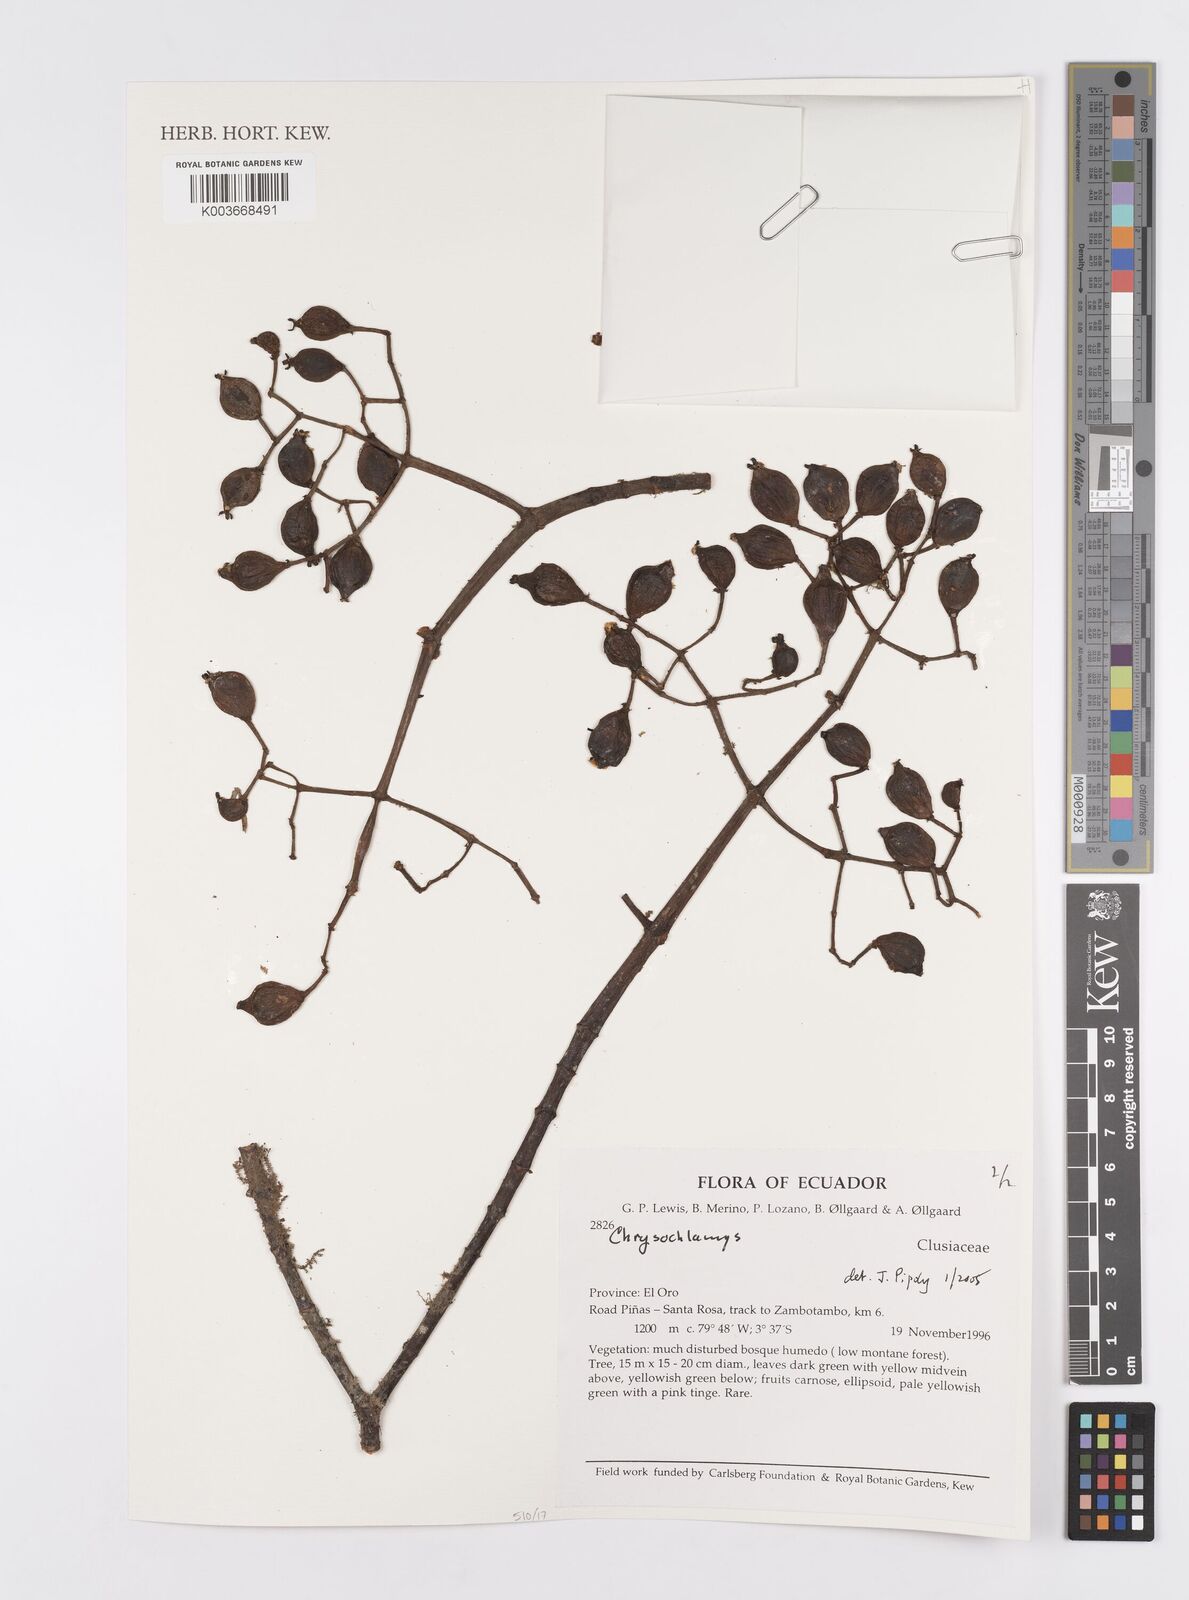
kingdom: Plantae
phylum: Tracheophyta
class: Magnoliopsida
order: Malpighiales
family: Clusiaceae
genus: Chrysochlamys
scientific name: Chrysochlamys
